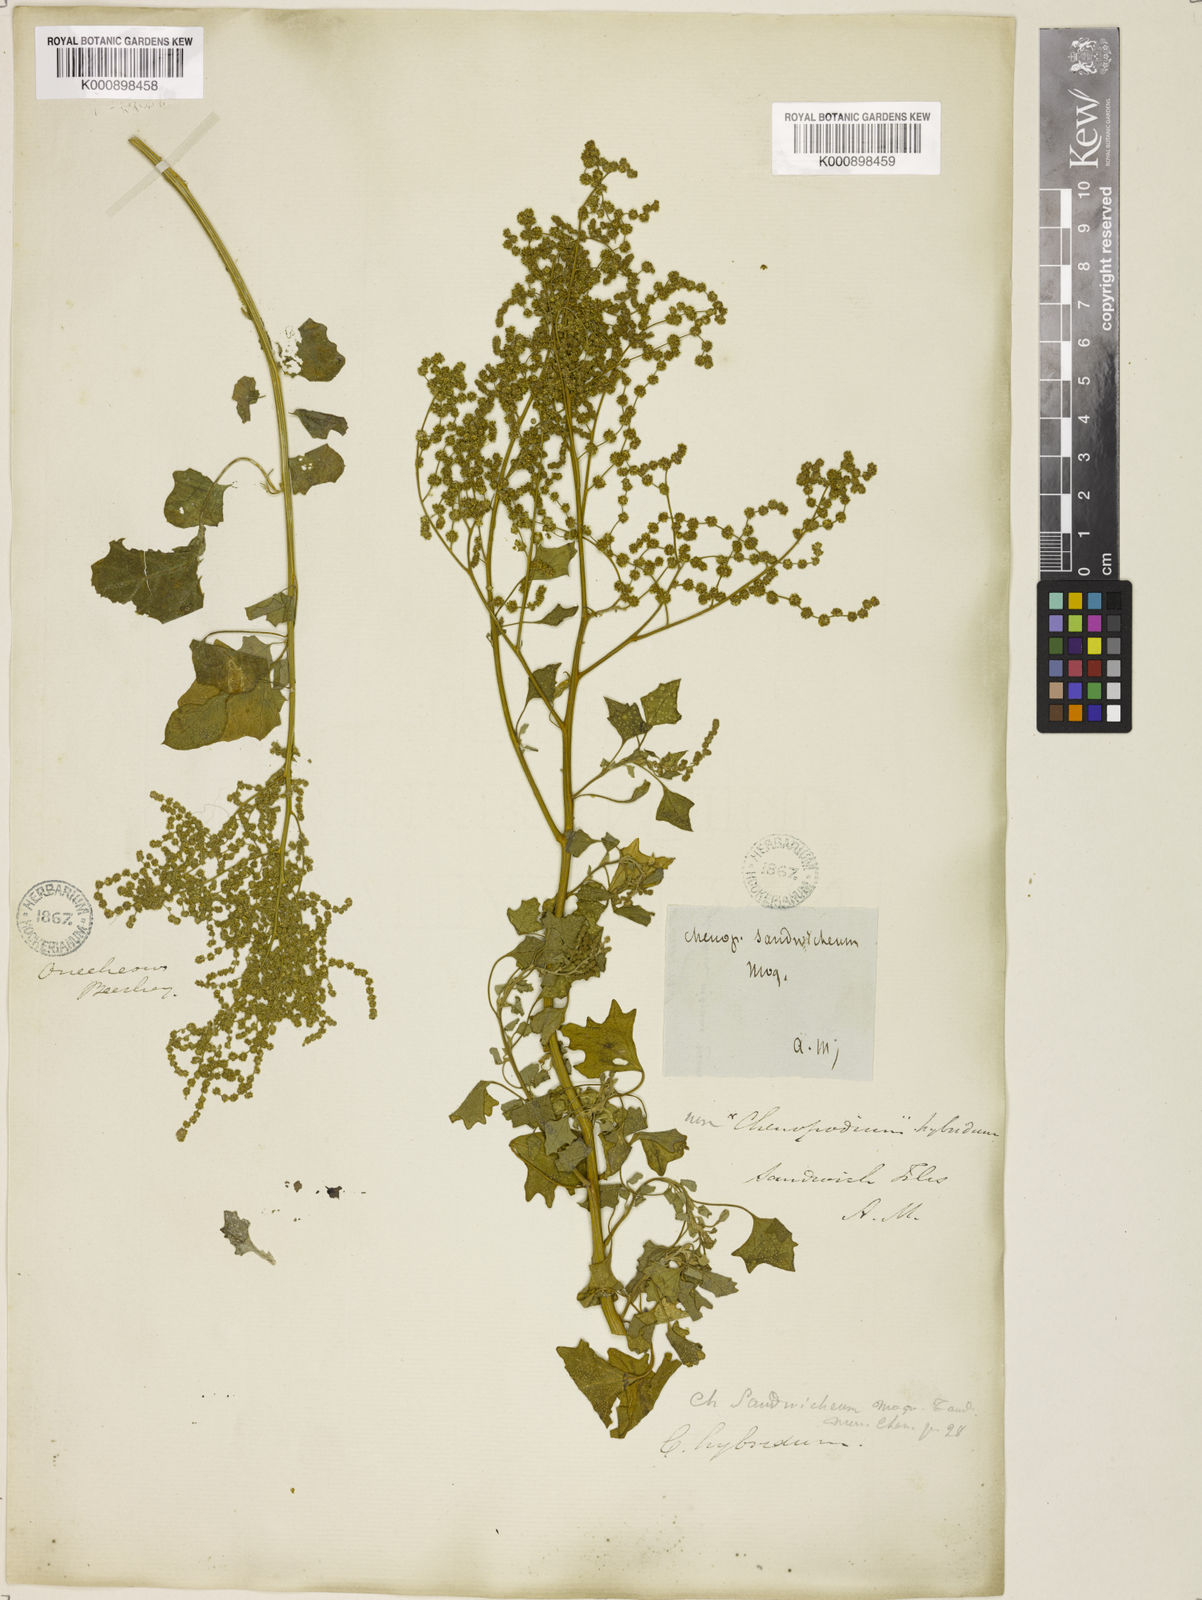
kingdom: Plantae
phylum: Tracheophyta
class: Magnoliopsida
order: Caryophyllales
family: Amaranthaceae
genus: Chenopodium
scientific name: Chenopodium oahuense
